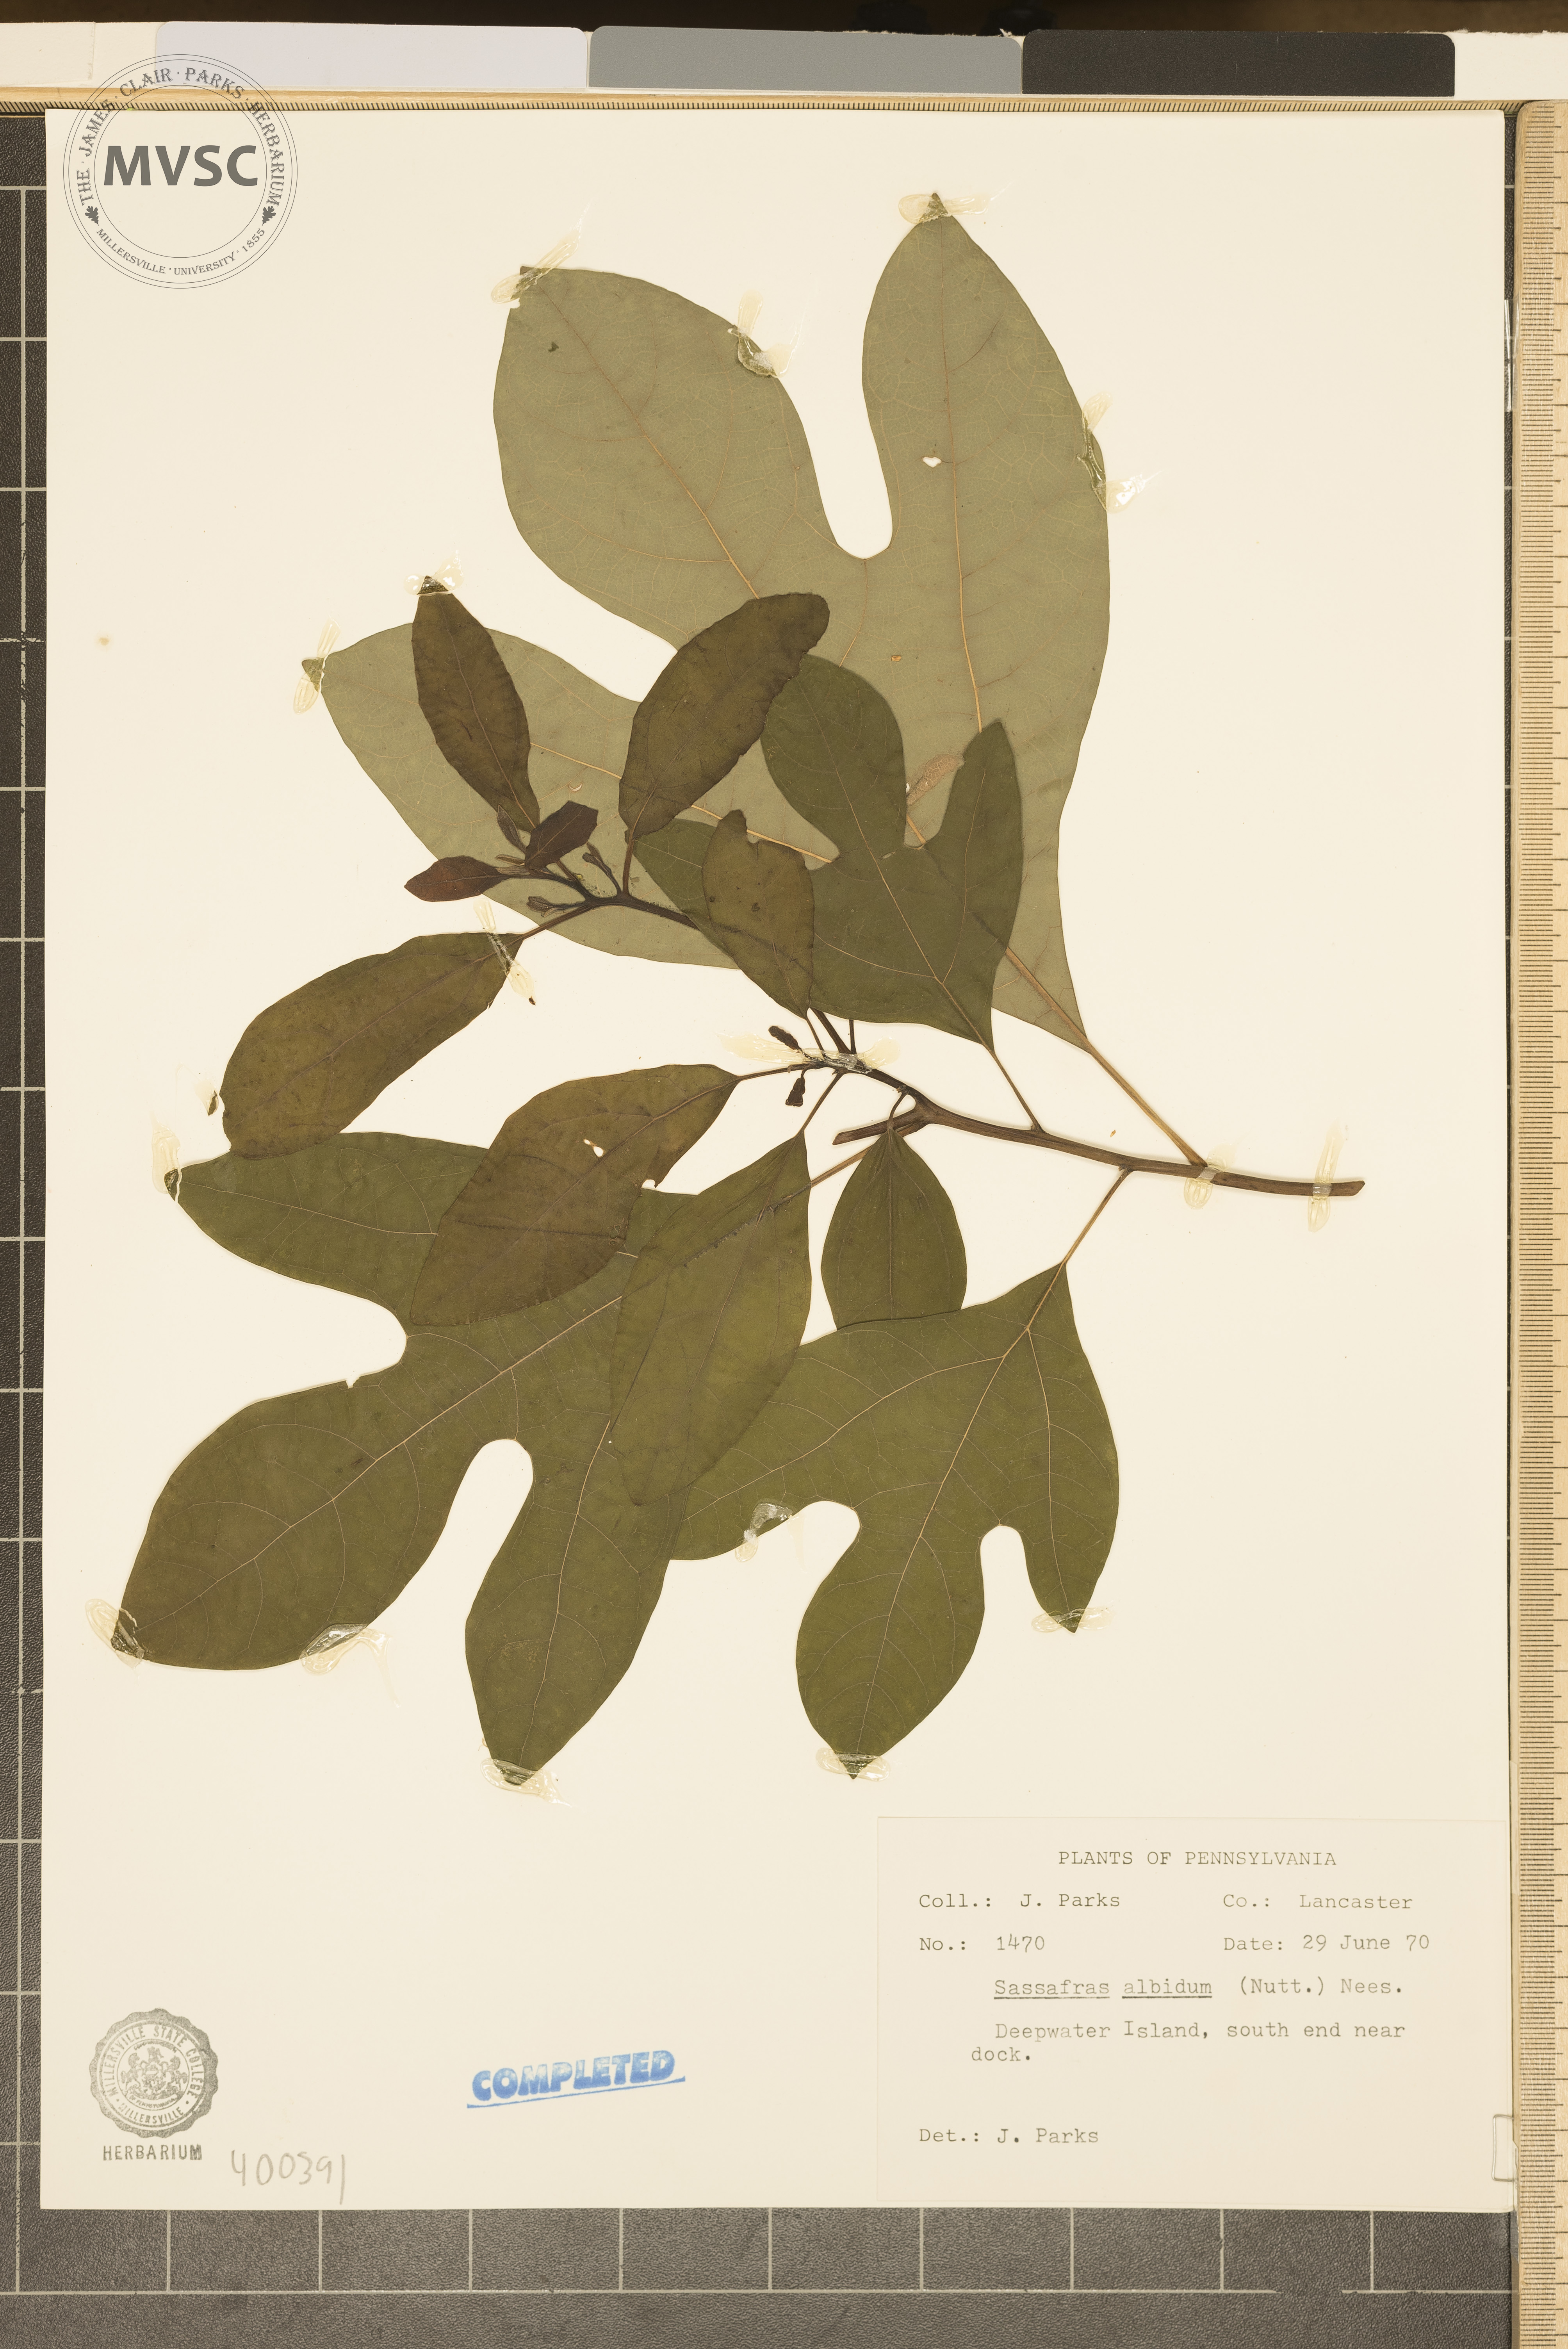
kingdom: Plantae
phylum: Tracheophyta
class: Magnoliopsida
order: Laurales
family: Lauraceae
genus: Sassafras
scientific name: Sassafras albidum
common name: sassafras
